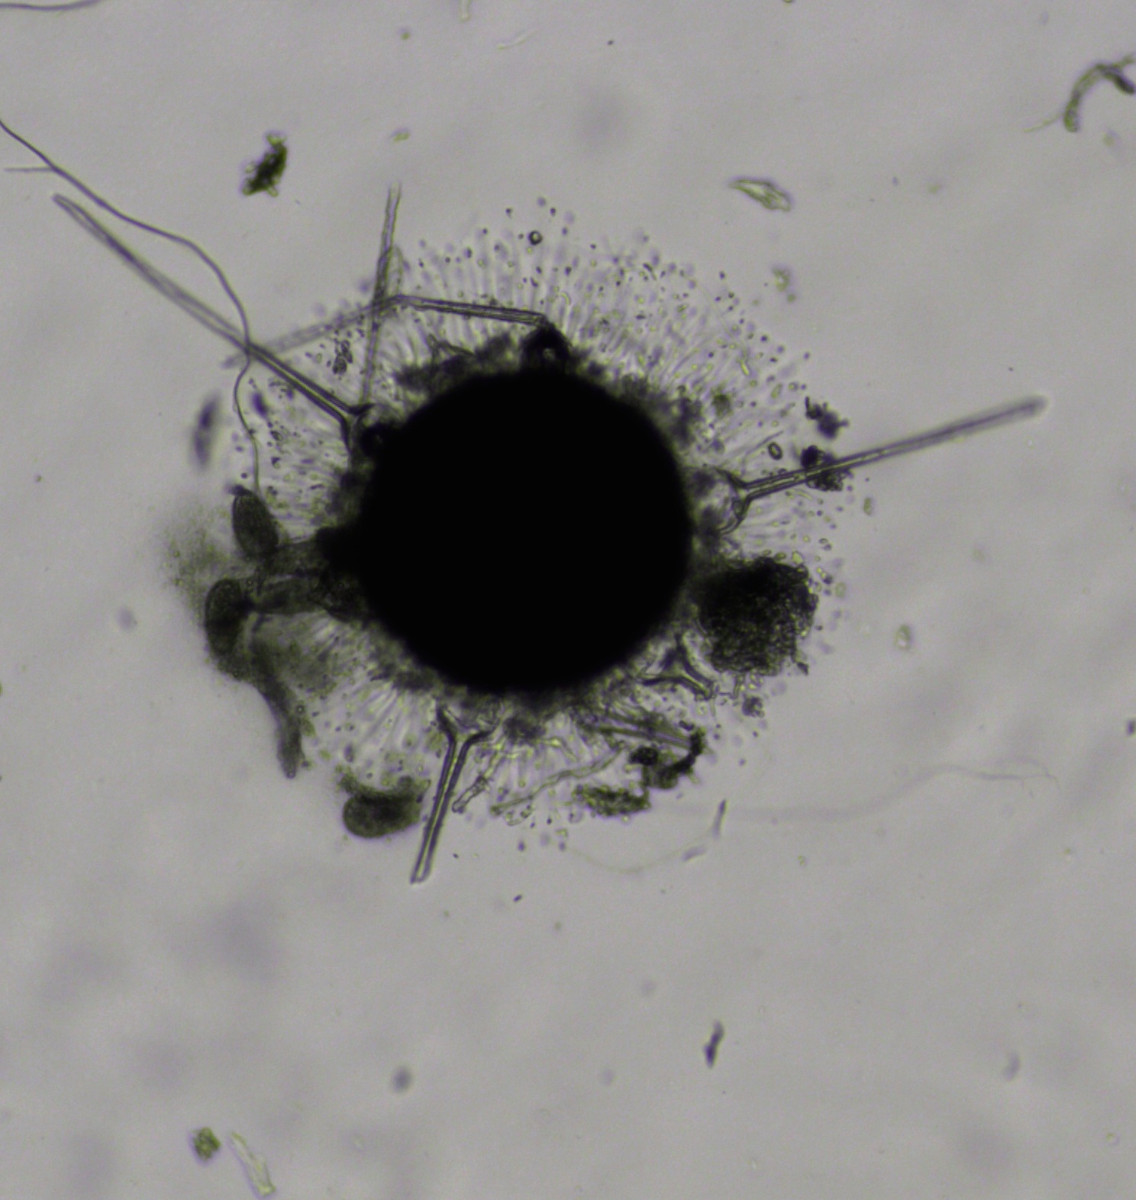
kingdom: Fungi
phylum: Ascomycota
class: Leotiomycetes
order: Helotiales
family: Erysiphaceae
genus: Phyllactinia
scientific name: Phyllactinia mali
